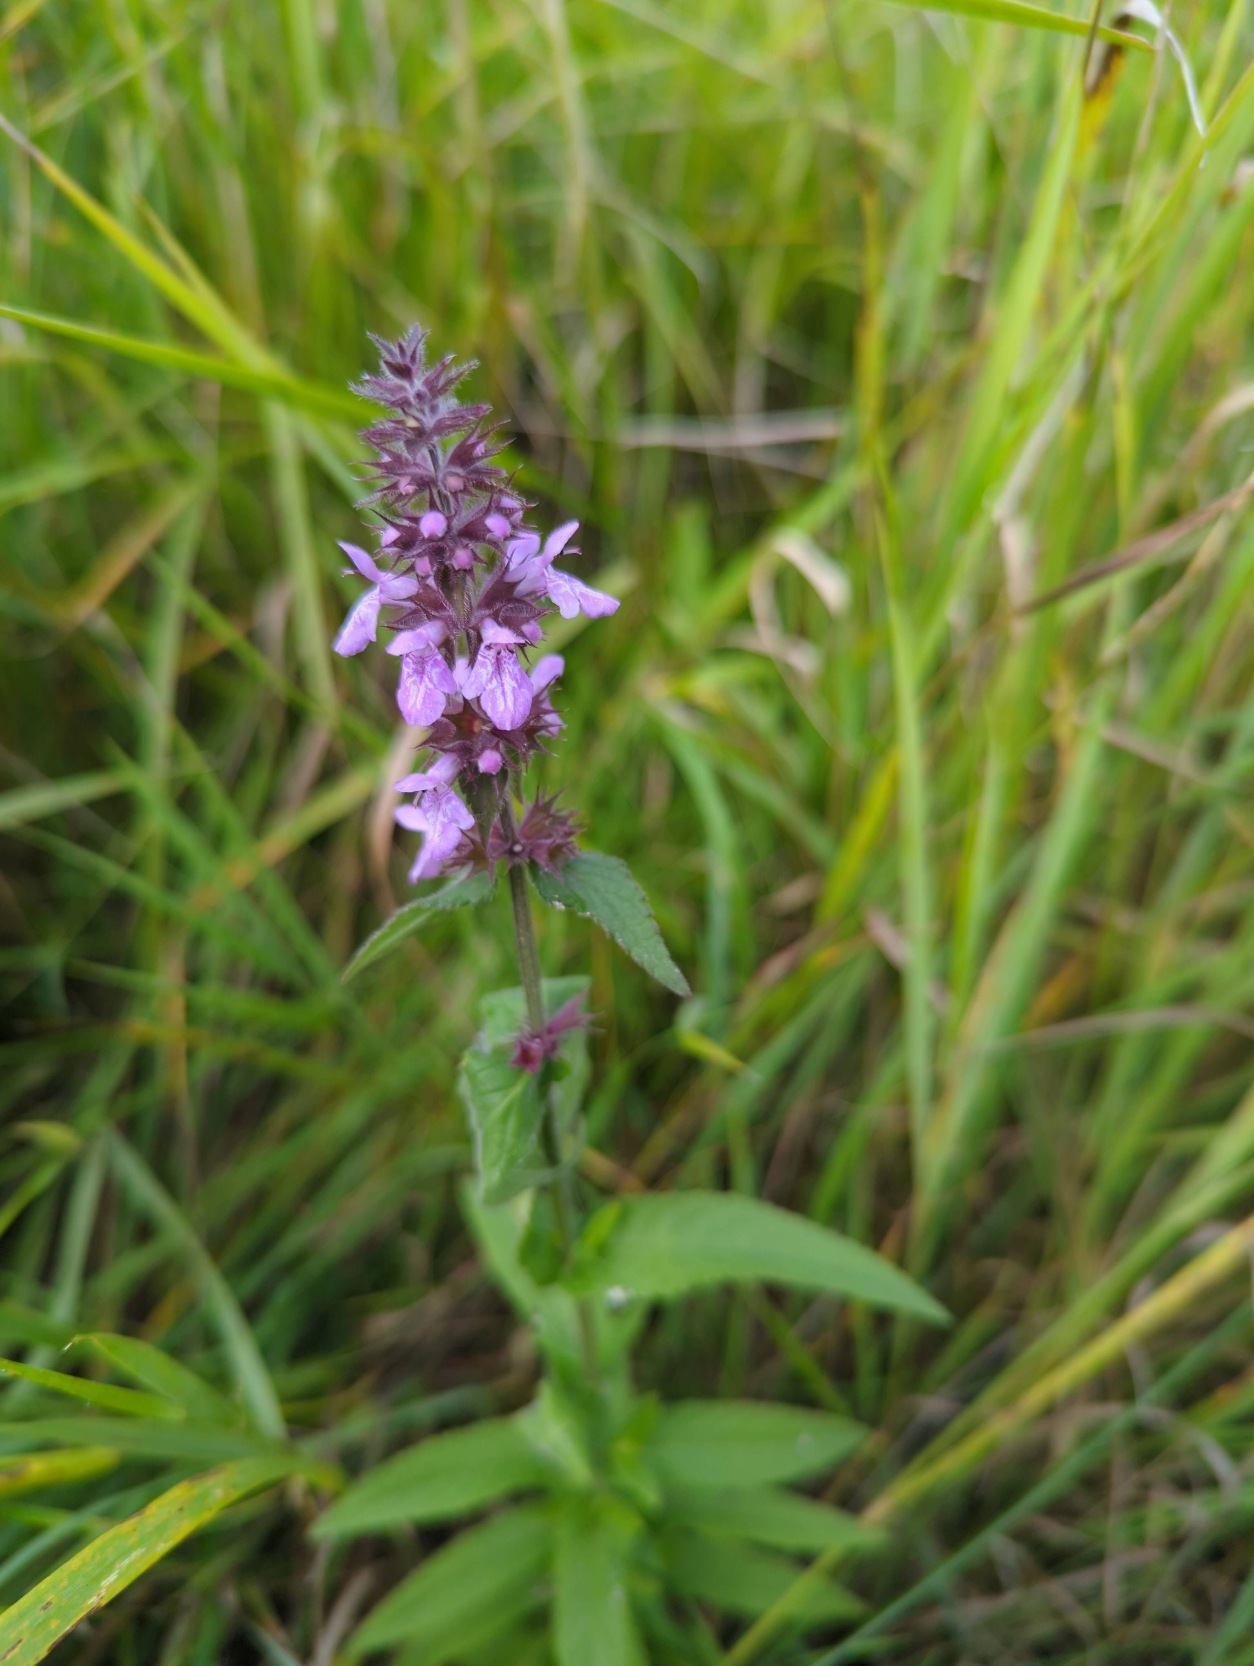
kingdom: Plantae
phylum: Tracheophyta
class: Magnoliopsida
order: Lamiales
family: Lamiaceae
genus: Stachys
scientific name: Stachys palustris
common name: Kær-galtetand
